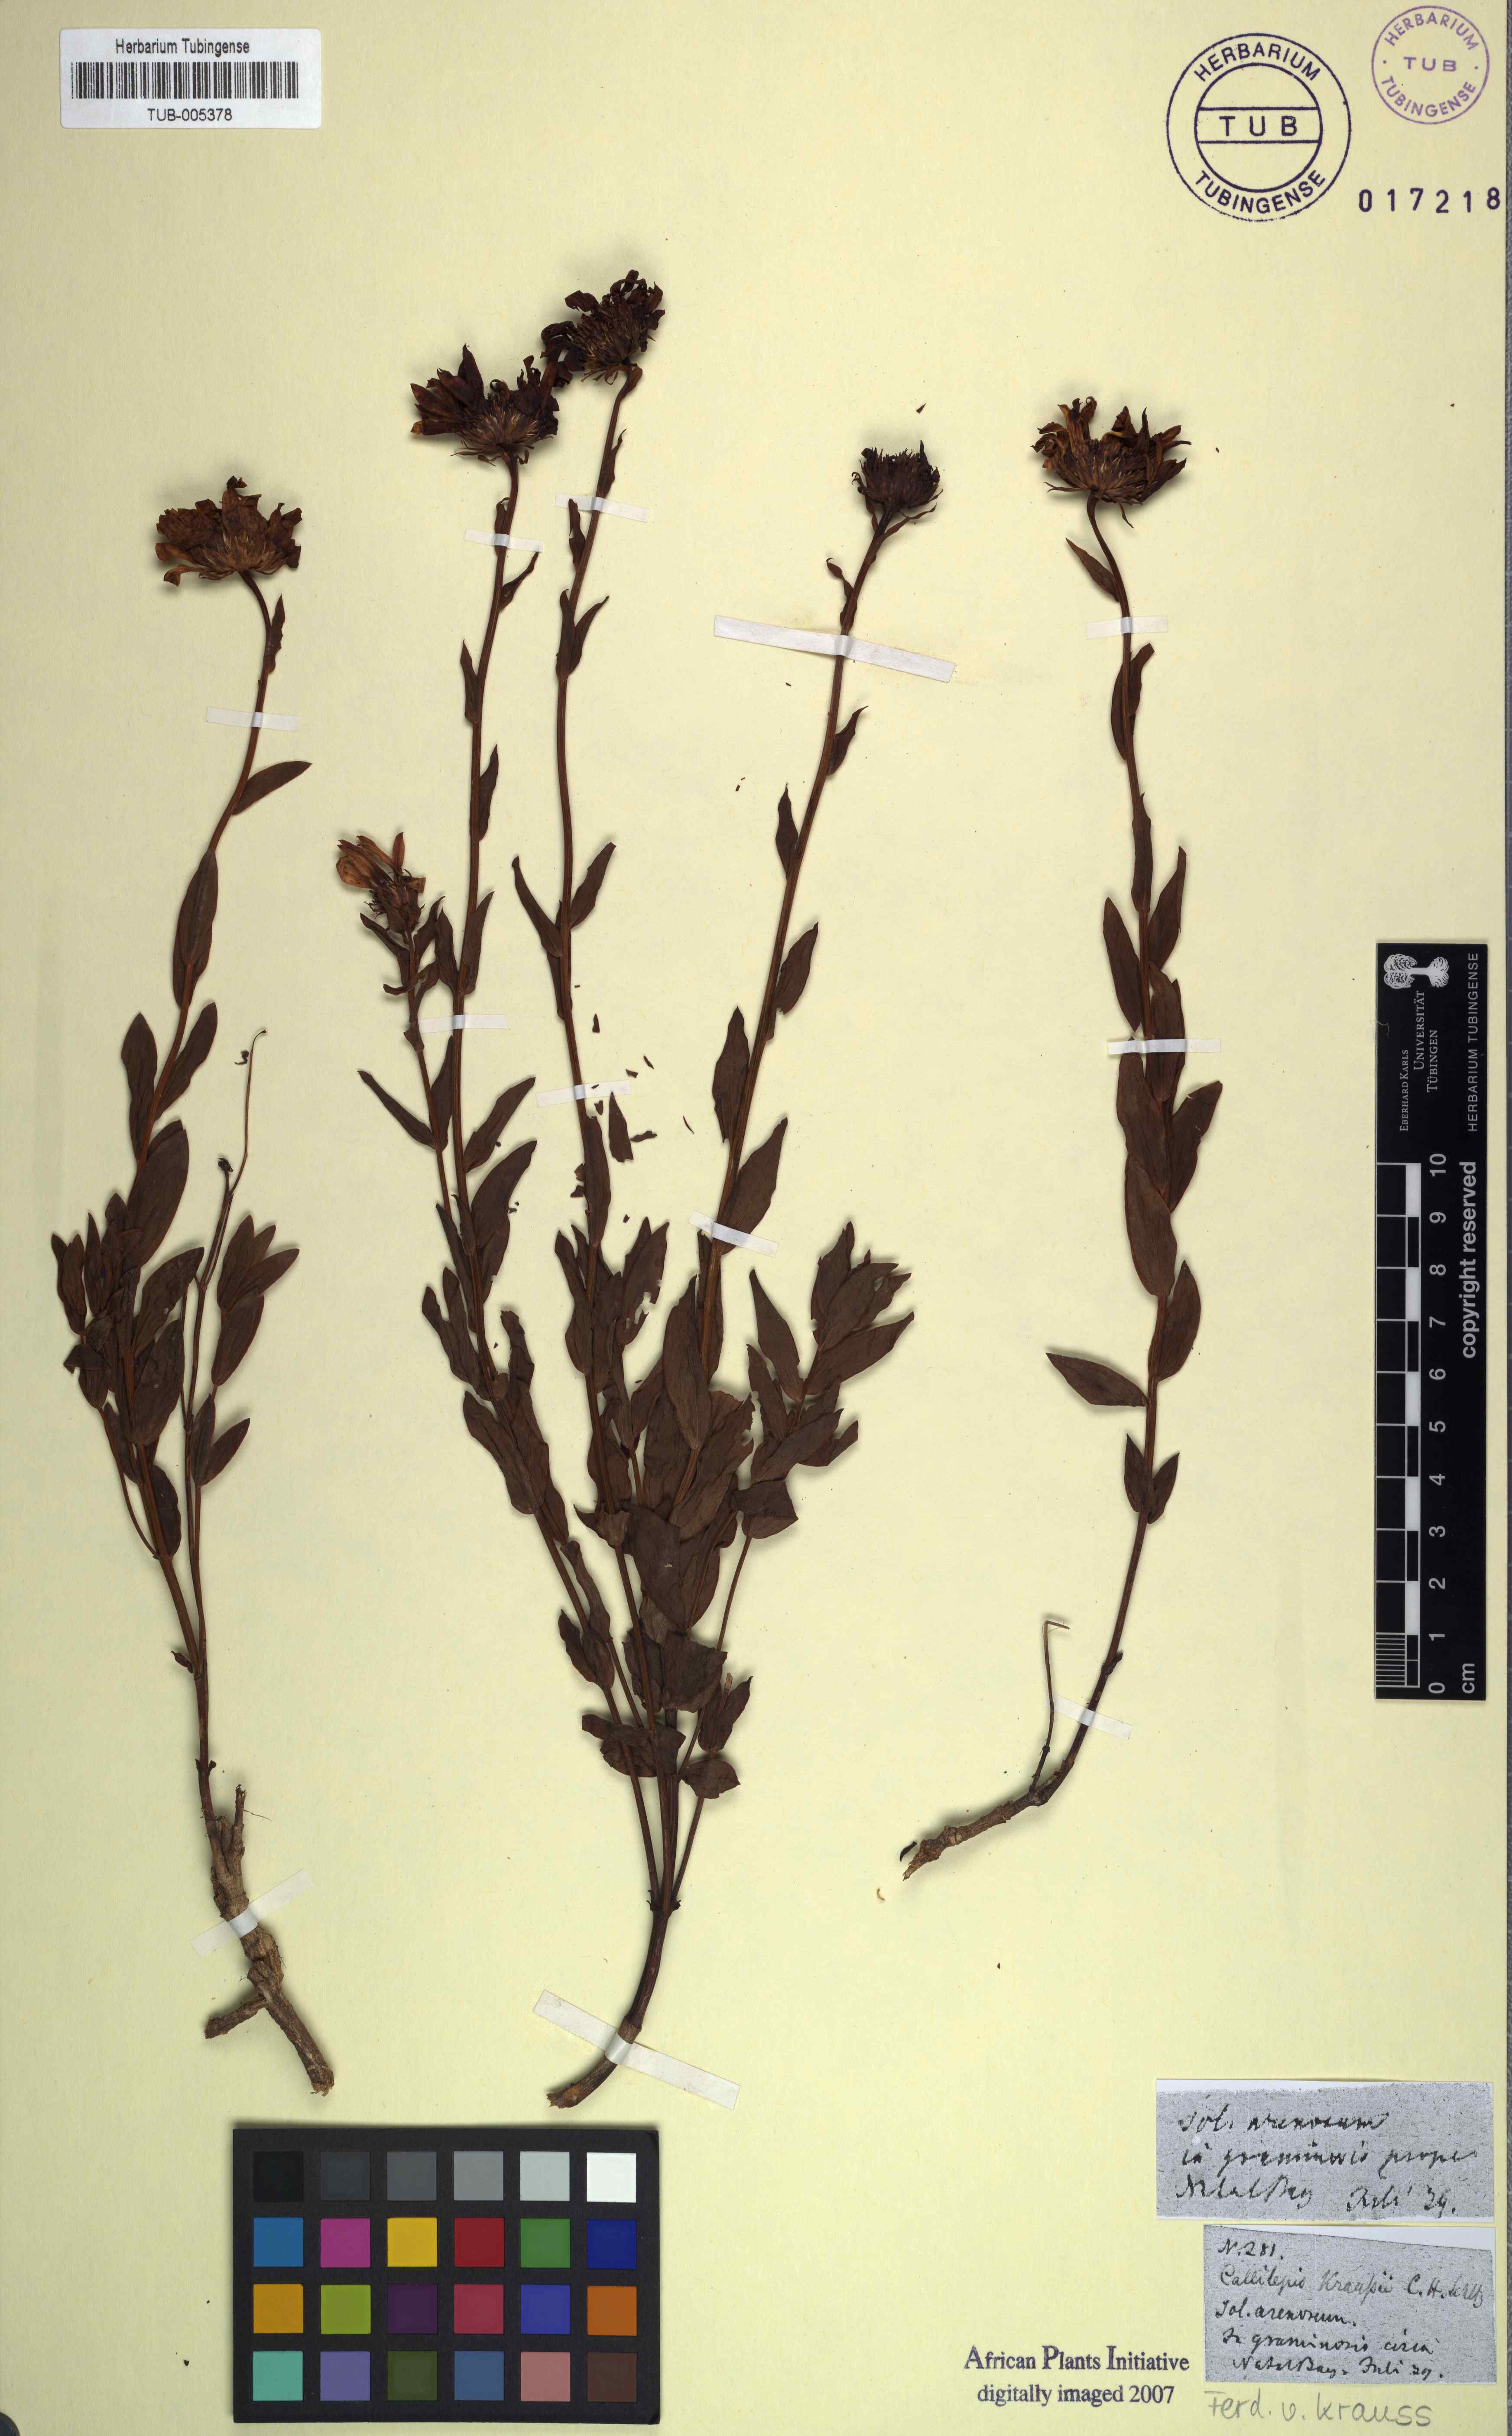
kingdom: Plantae
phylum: Tracheophyta
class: Magnoliopsida
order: Asterales
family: Asteraceae
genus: Callilepis
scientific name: Callilepis
